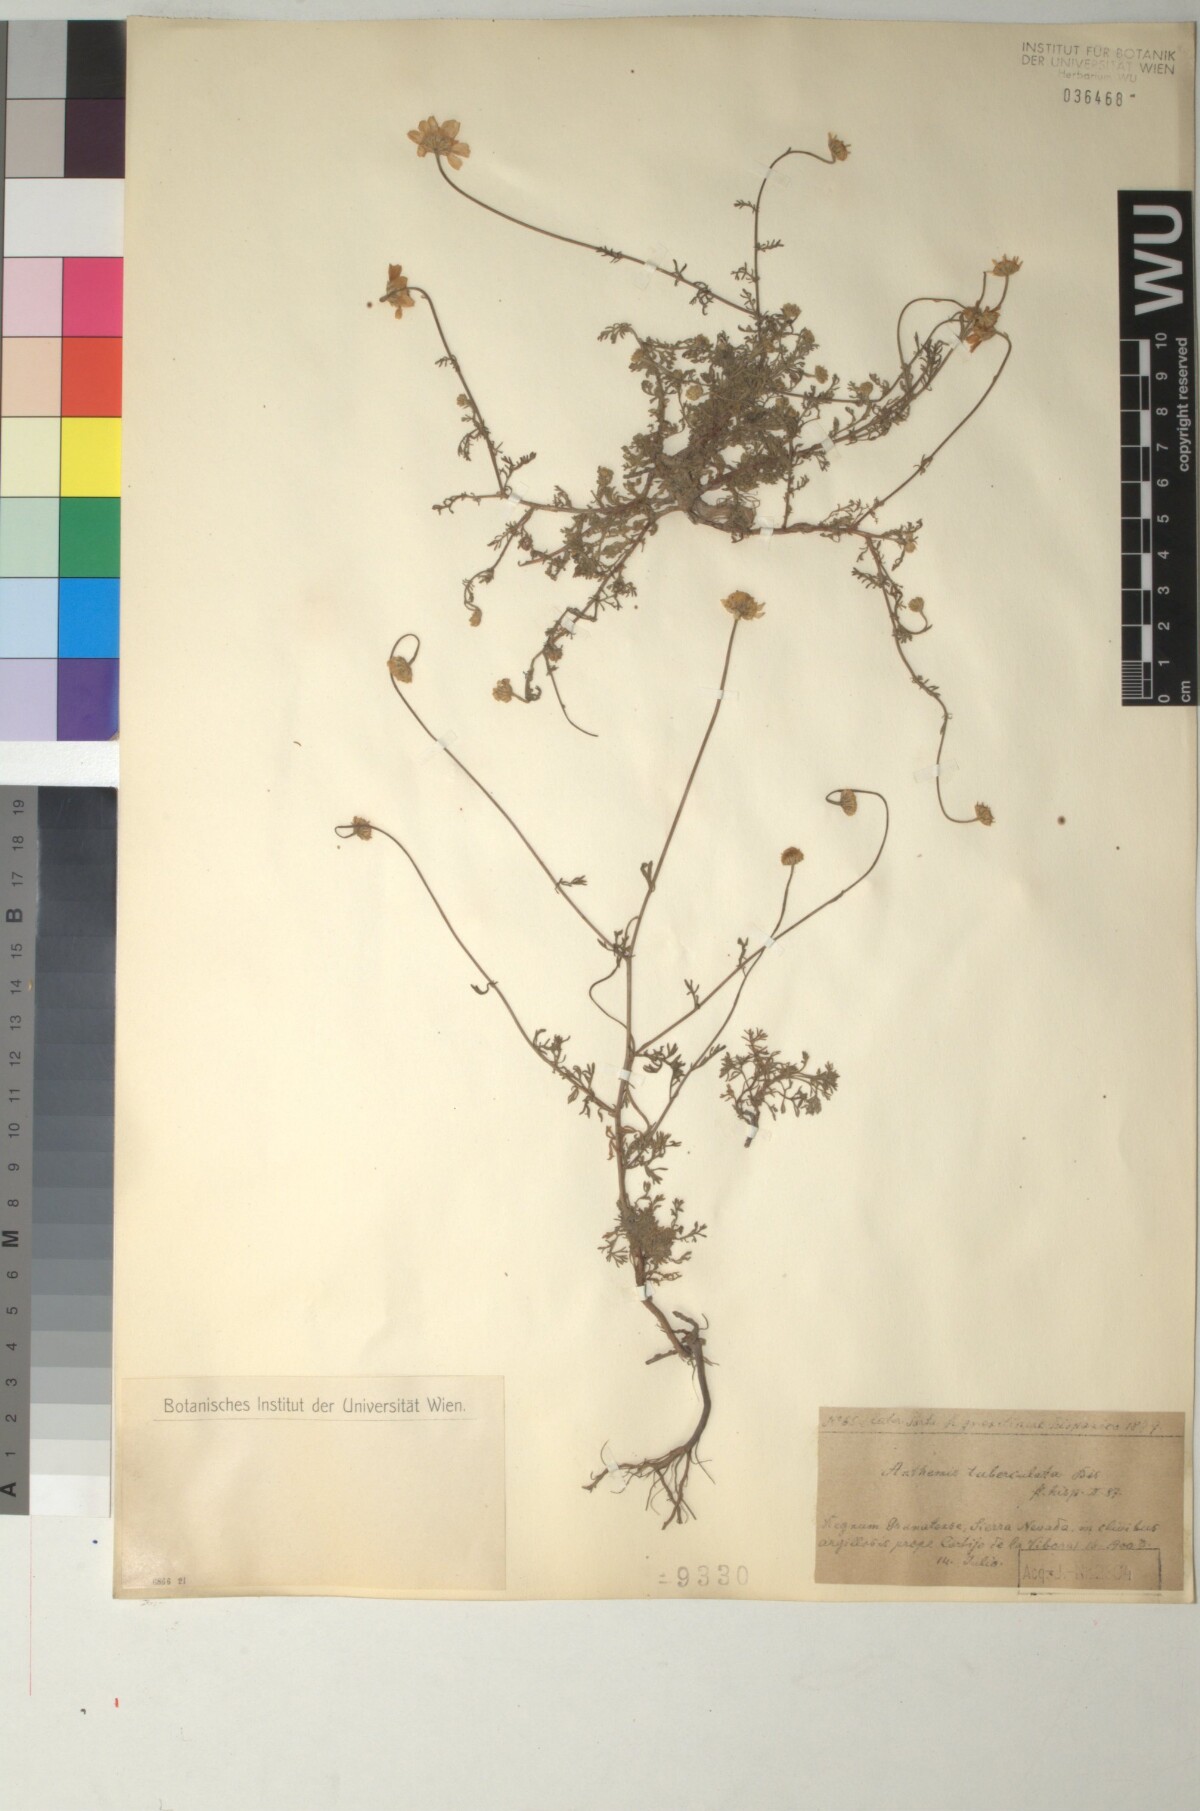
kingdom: Plantae
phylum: Tracheophyta
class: Magnoliopsida
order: Asterales
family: Asteraceae
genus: Anthemis
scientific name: Anthemis pedunculata
